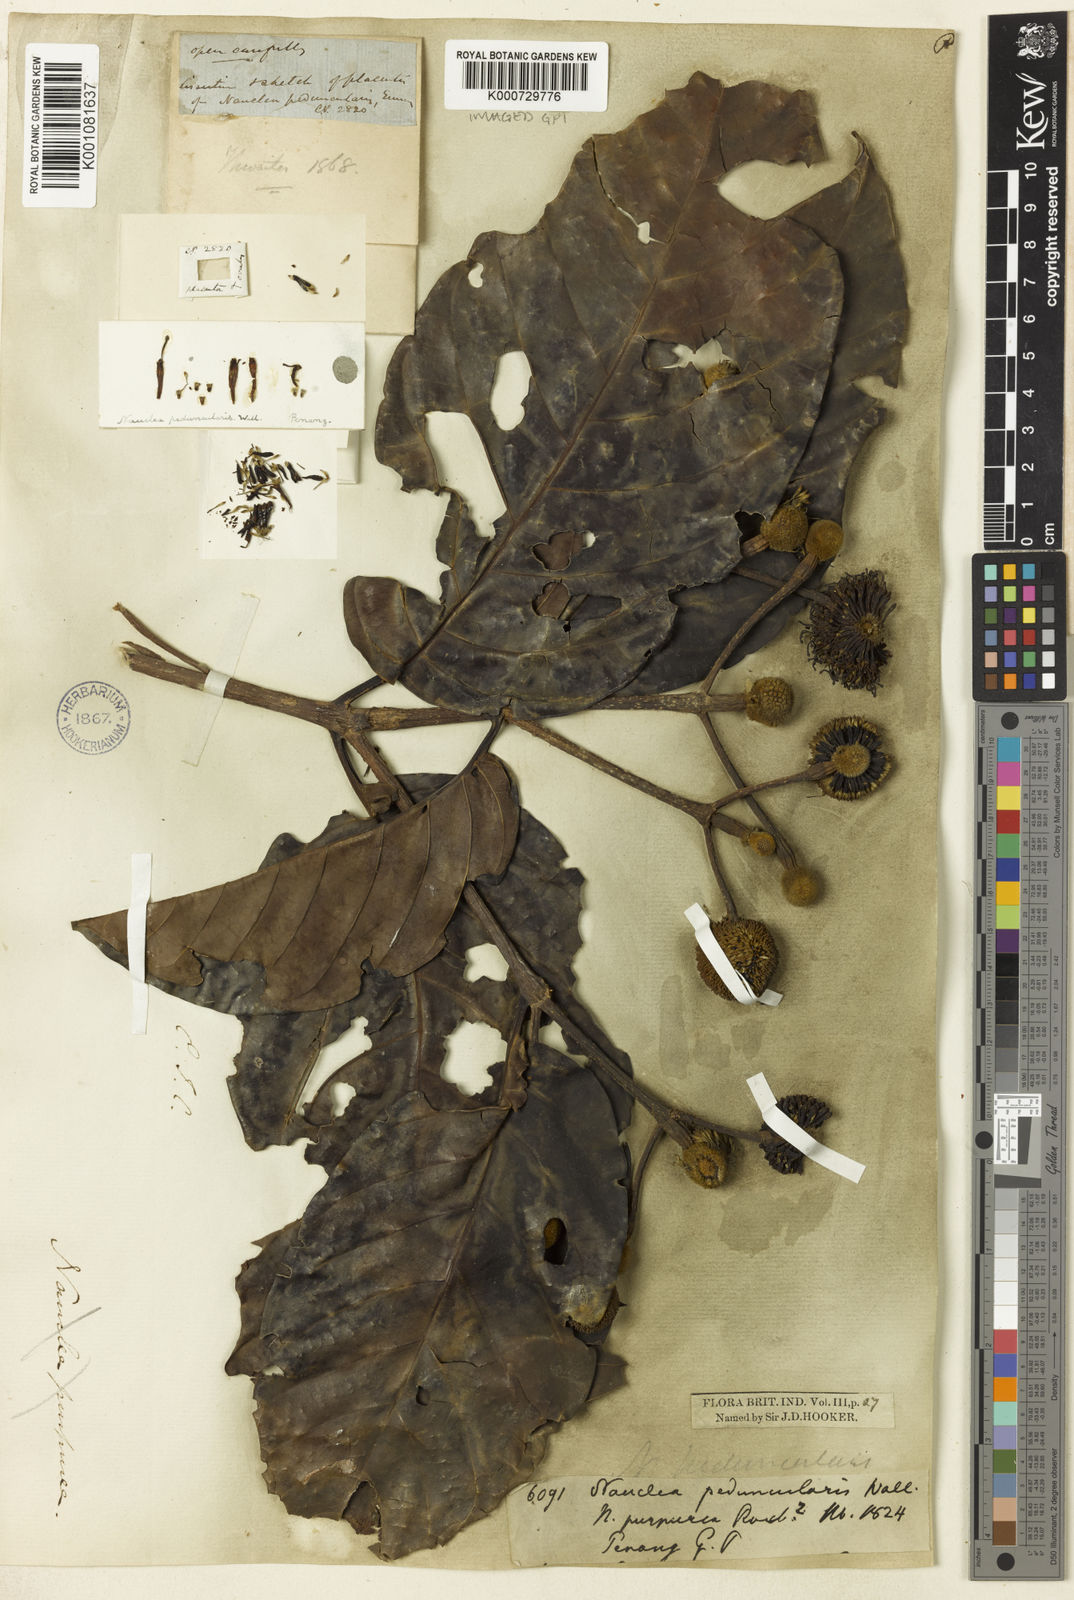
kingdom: Plantae
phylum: Tracheophyta
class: Magnoliopsida
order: Gentianales
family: Rubiaceae
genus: Neonauclea
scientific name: Neonauclea pallida
